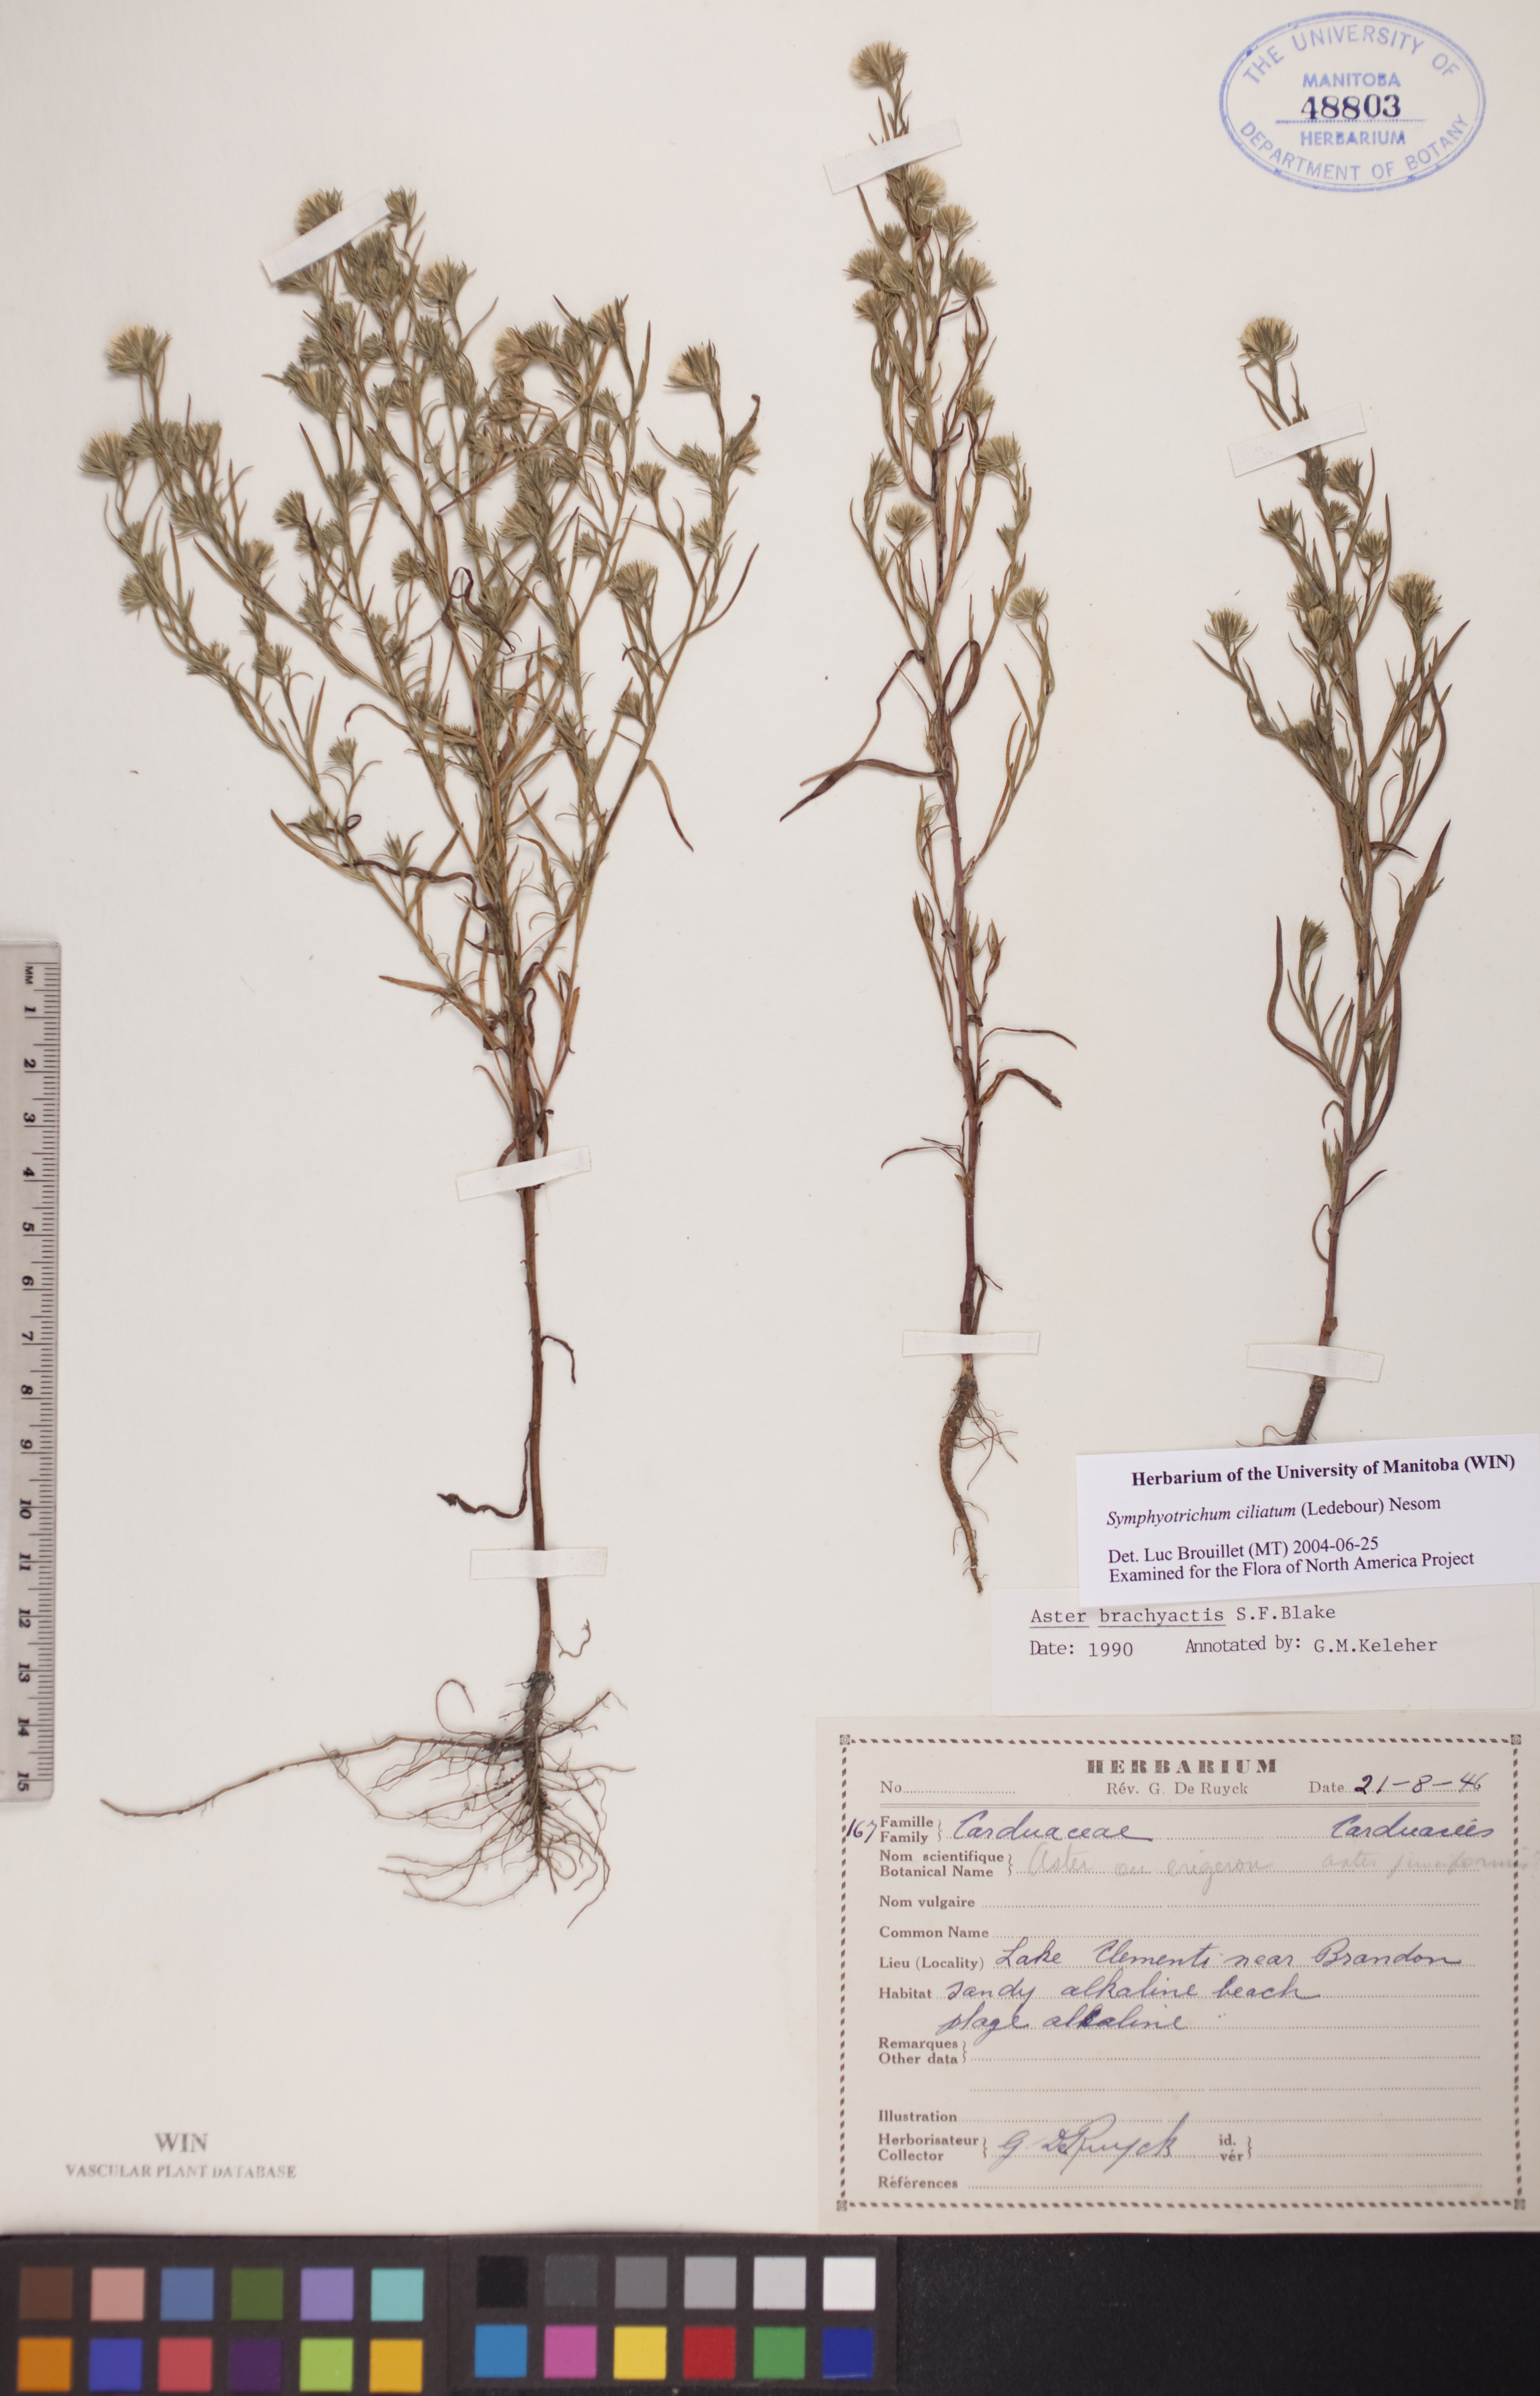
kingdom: Plantae
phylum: Tracheophyta
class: Magnoliopsida
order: Asterales
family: Asteraceae
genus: Symphyotrichum
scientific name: Symphyotrichum ciliatum
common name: Rayless annual aster
